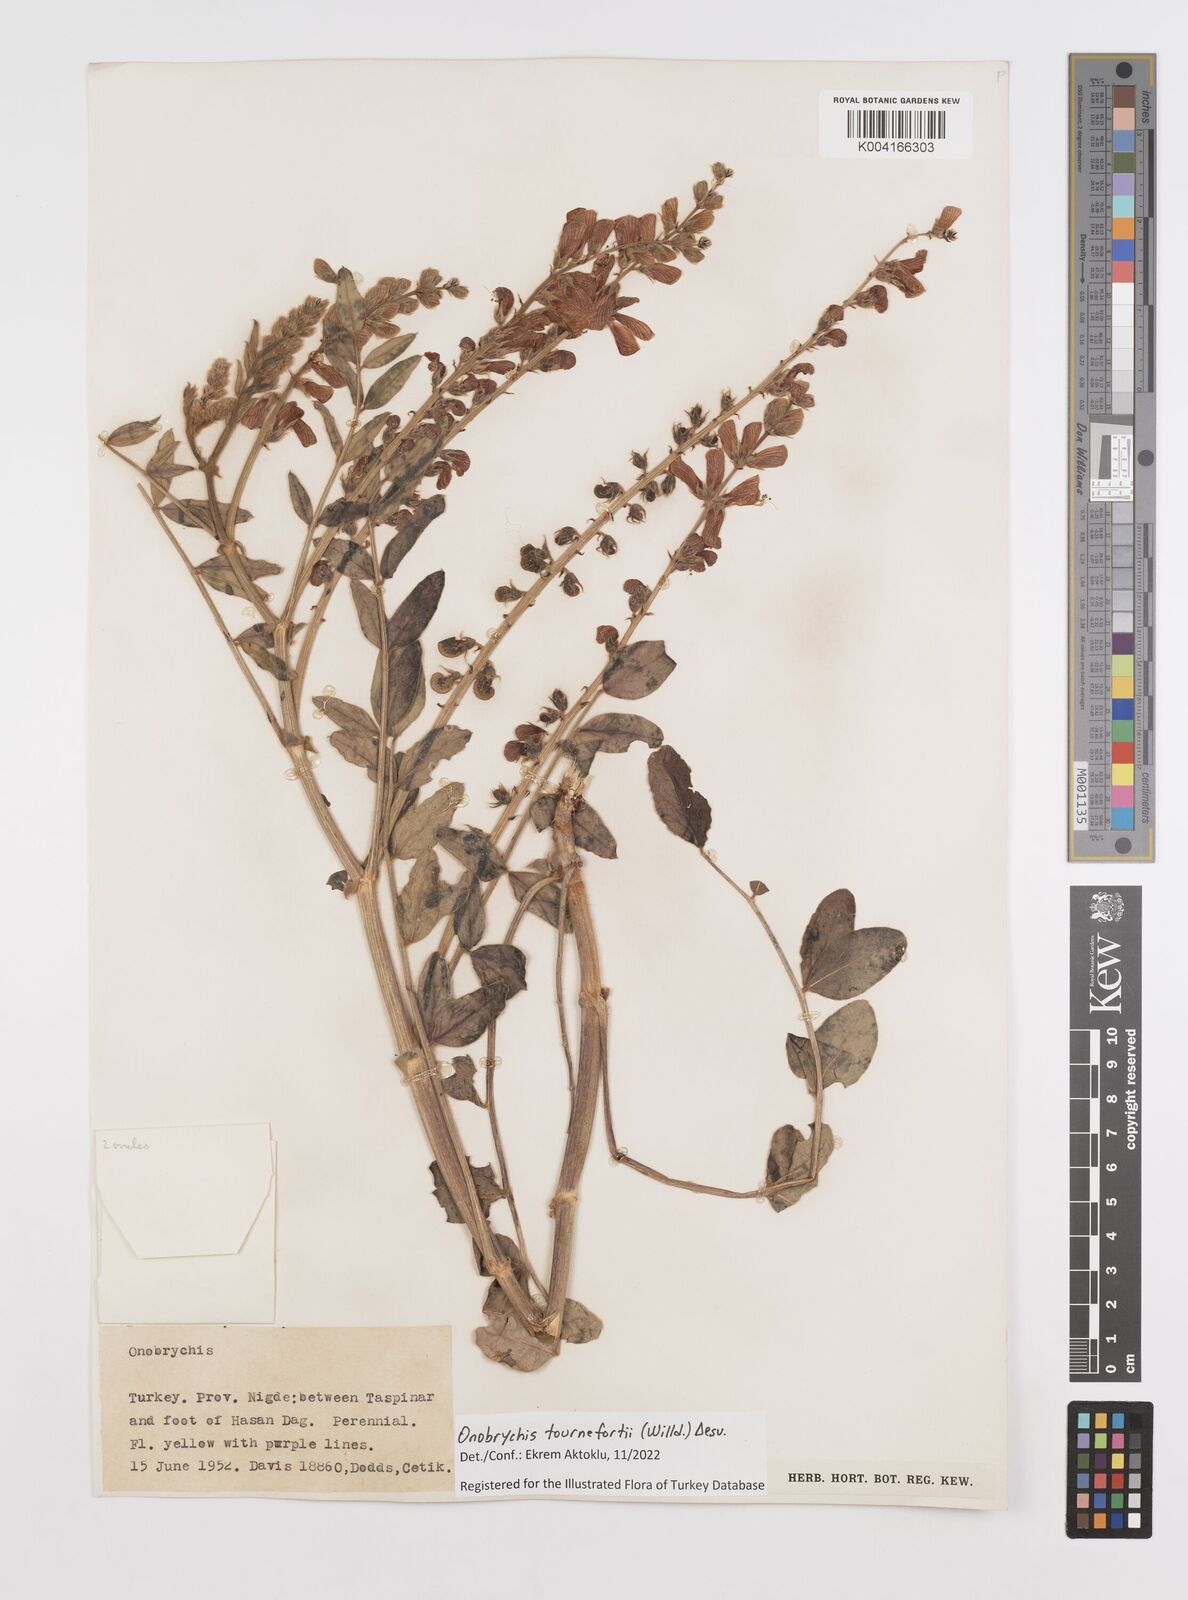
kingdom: Plantae
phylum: Tracheophyta
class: Magnoliopsida
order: Fabales
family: Fabaceae
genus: Onobrychis
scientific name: Onobrychis tournefortii
